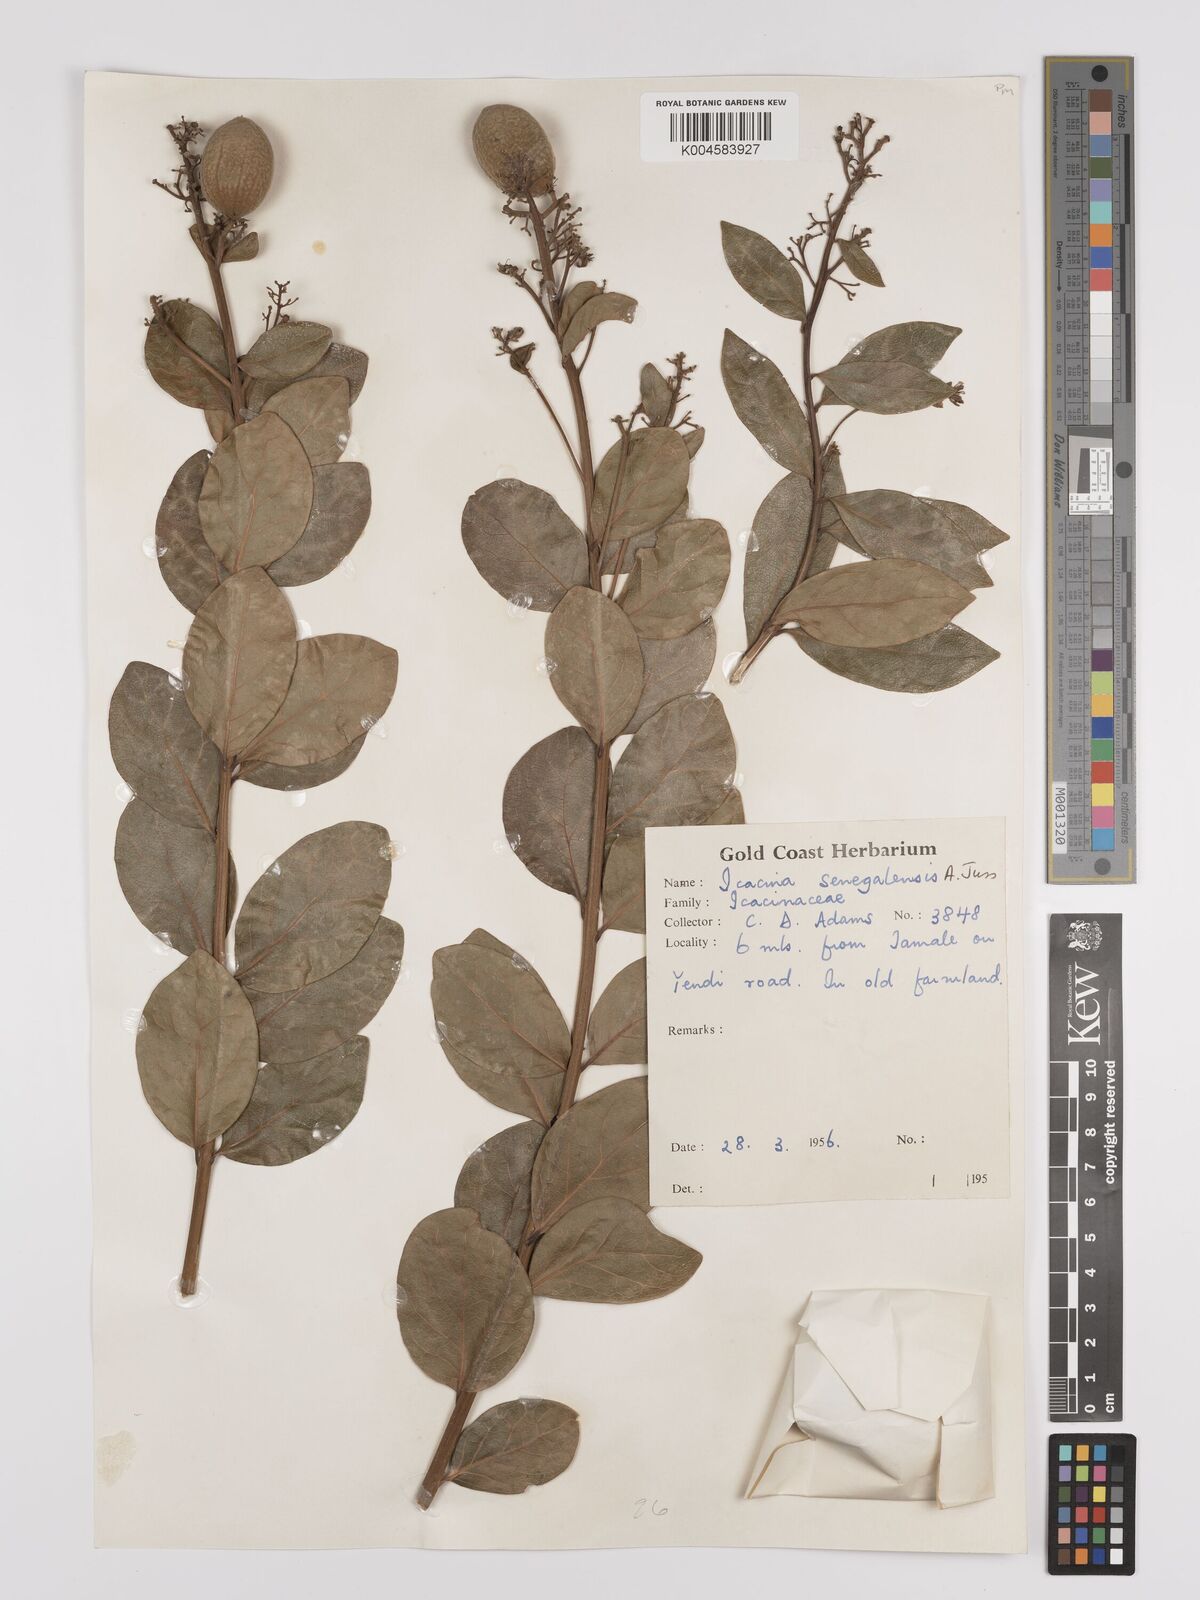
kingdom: Plantae
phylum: Tracheophyta
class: Magnoliopsida
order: Icacinales
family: Icacinaceae
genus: Icacina
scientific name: Icacina oliviformis
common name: False yam
